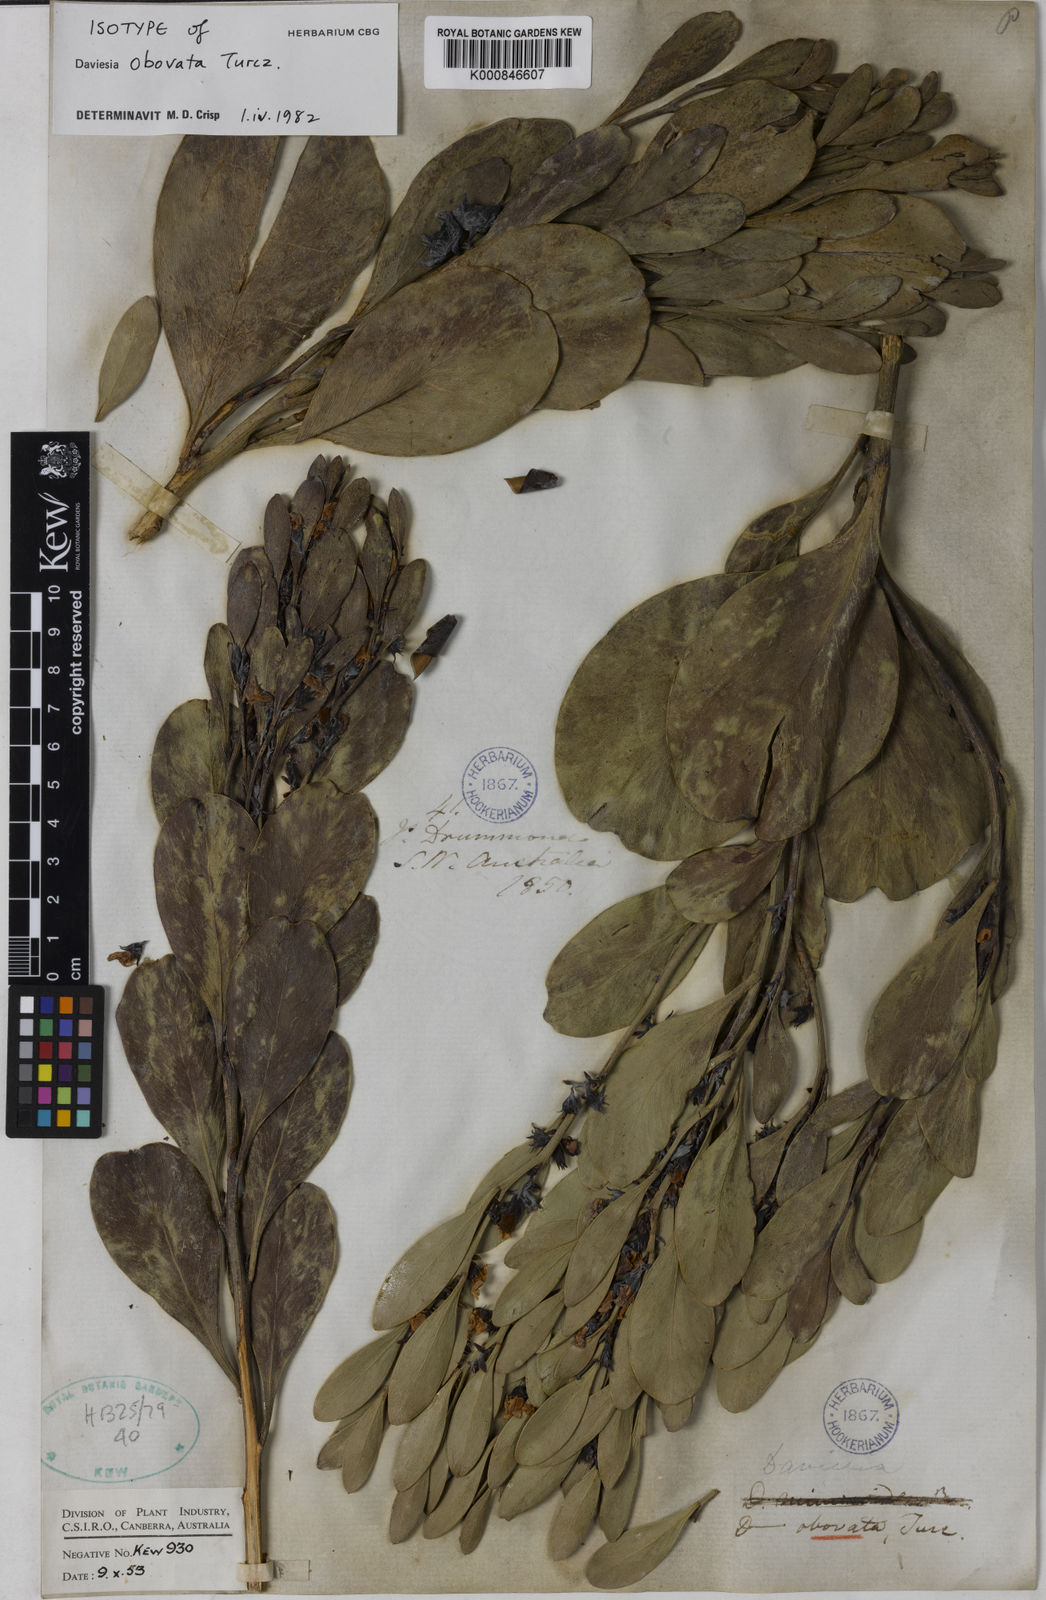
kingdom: Plantae
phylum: Tracheophyta
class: Magnoliopsida
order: Fabales
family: Fabaceae
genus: Daviesia
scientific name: Daviesia obovata
